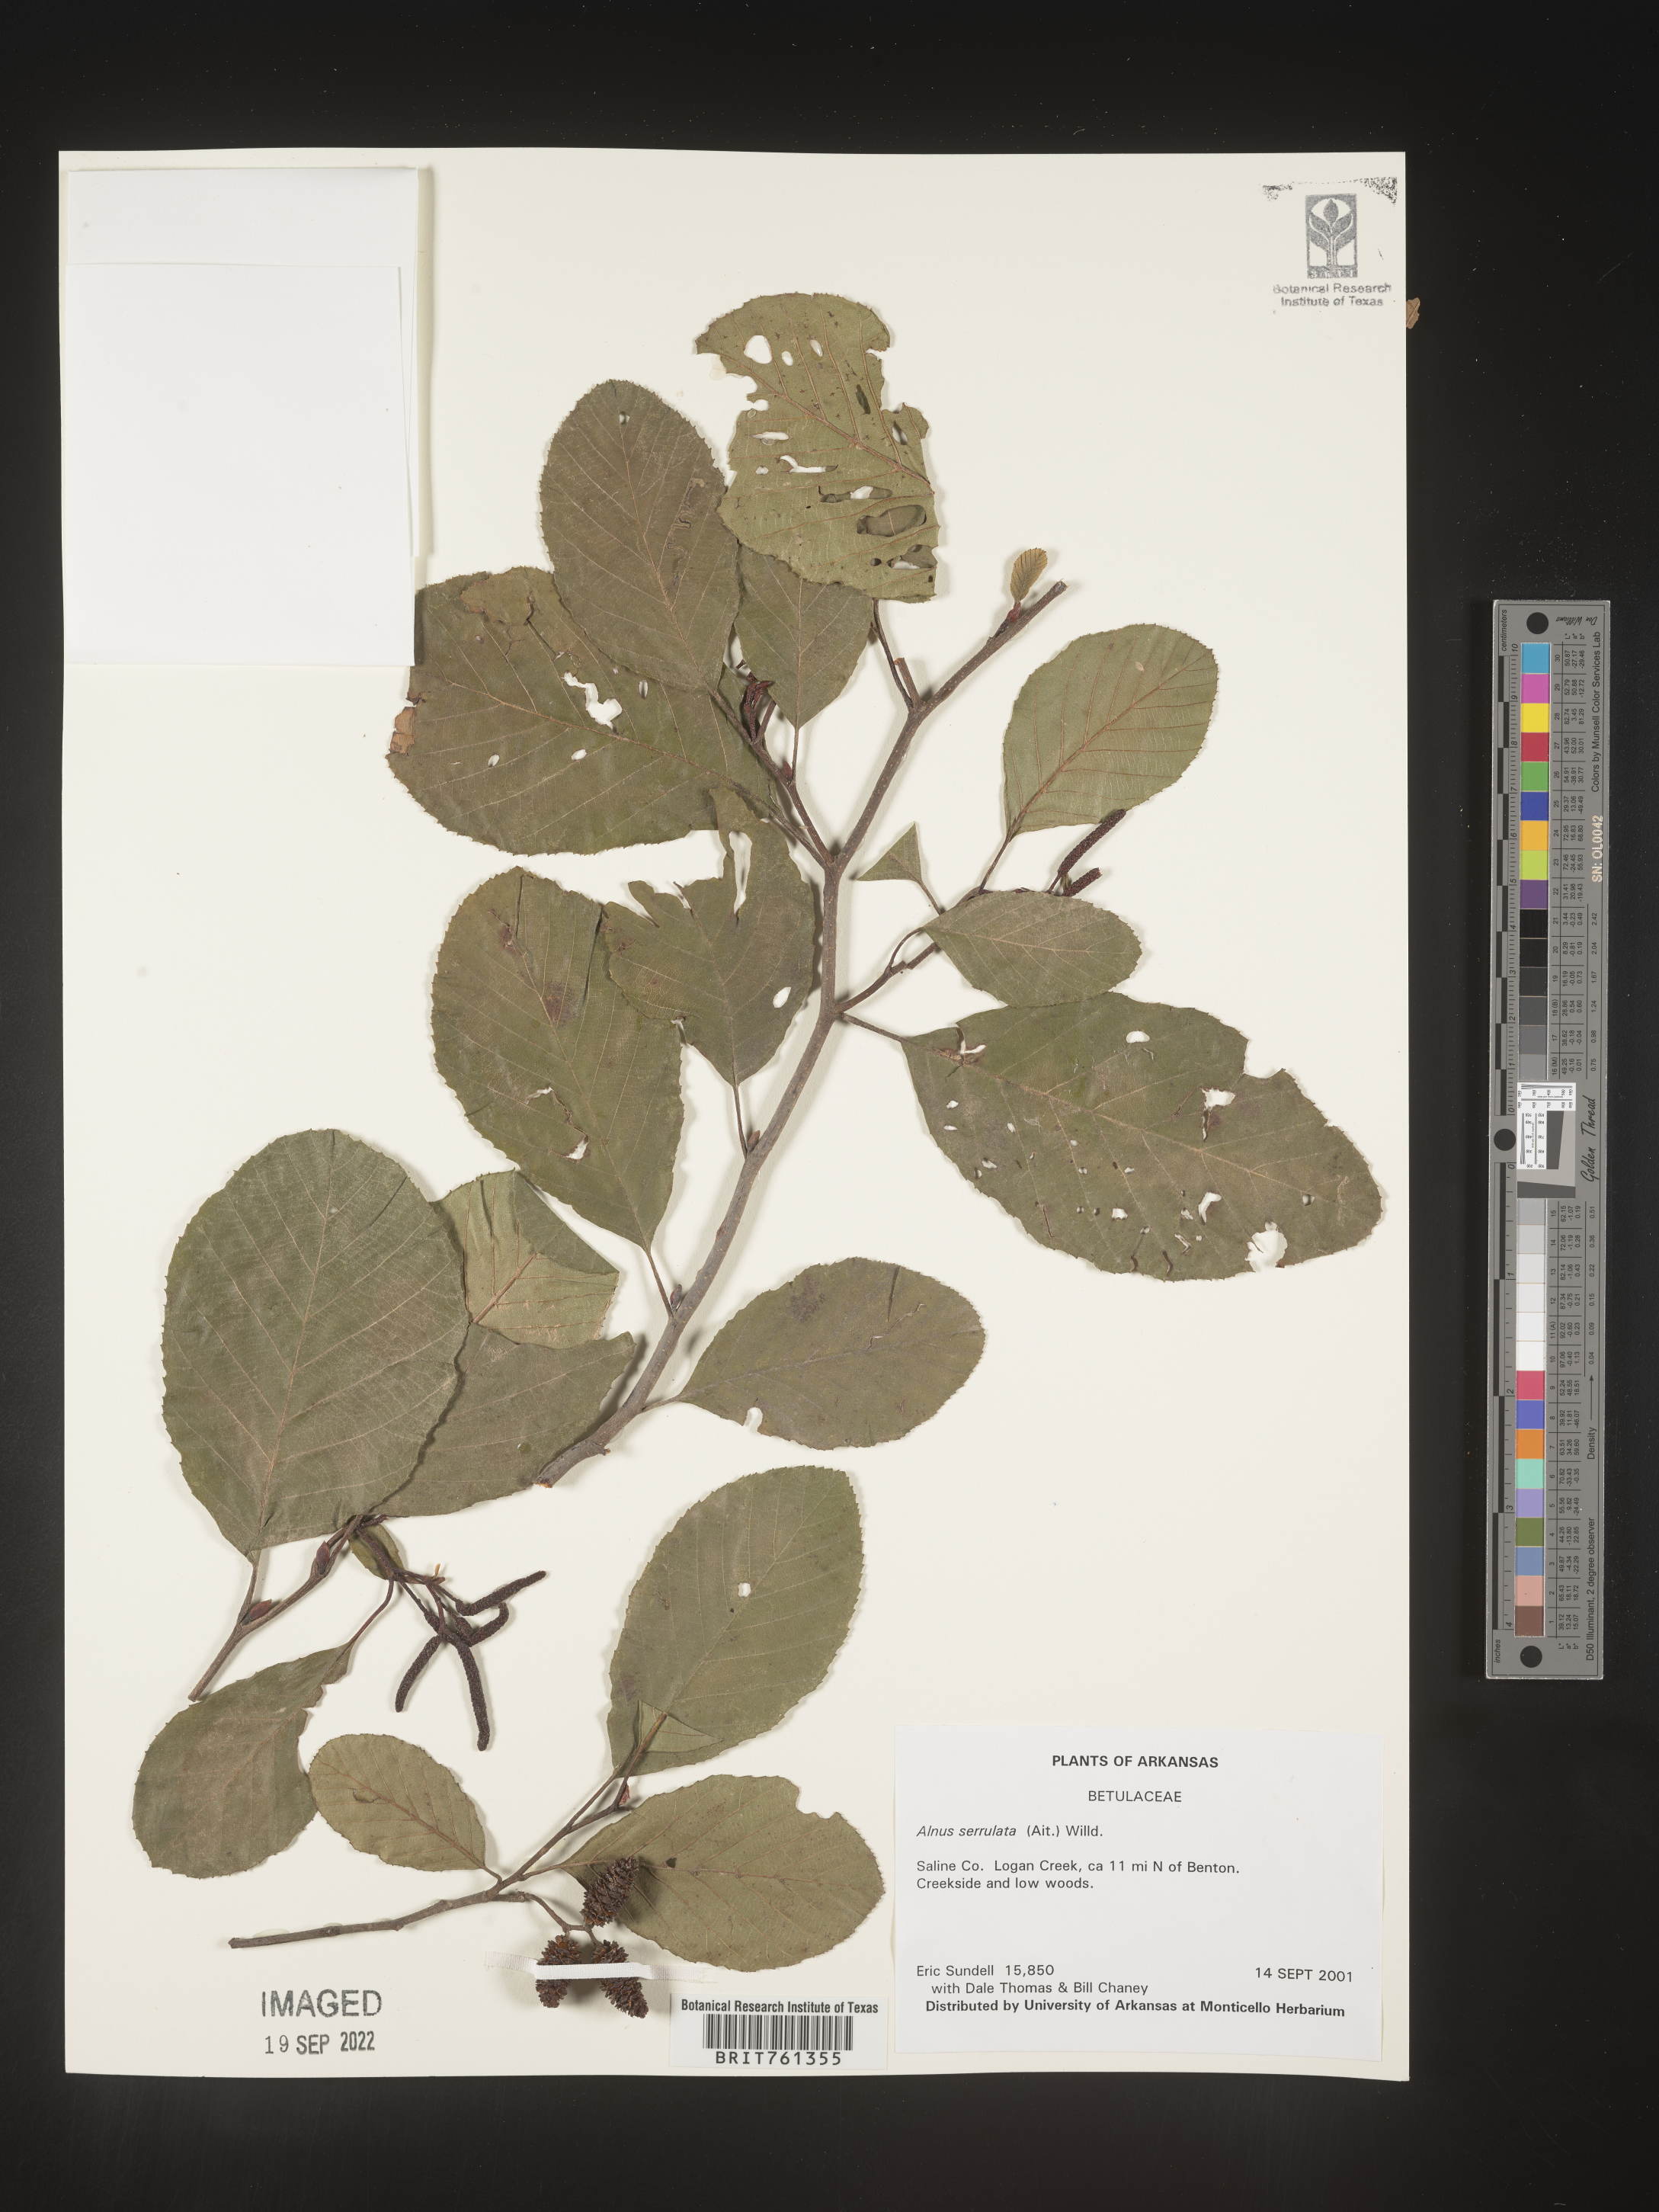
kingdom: Plantae
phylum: Tracheophyta
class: Magnoliopsida
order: Fagales
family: Betulaceae
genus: Alnus
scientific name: Alnus serrulata
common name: Hazel alder
